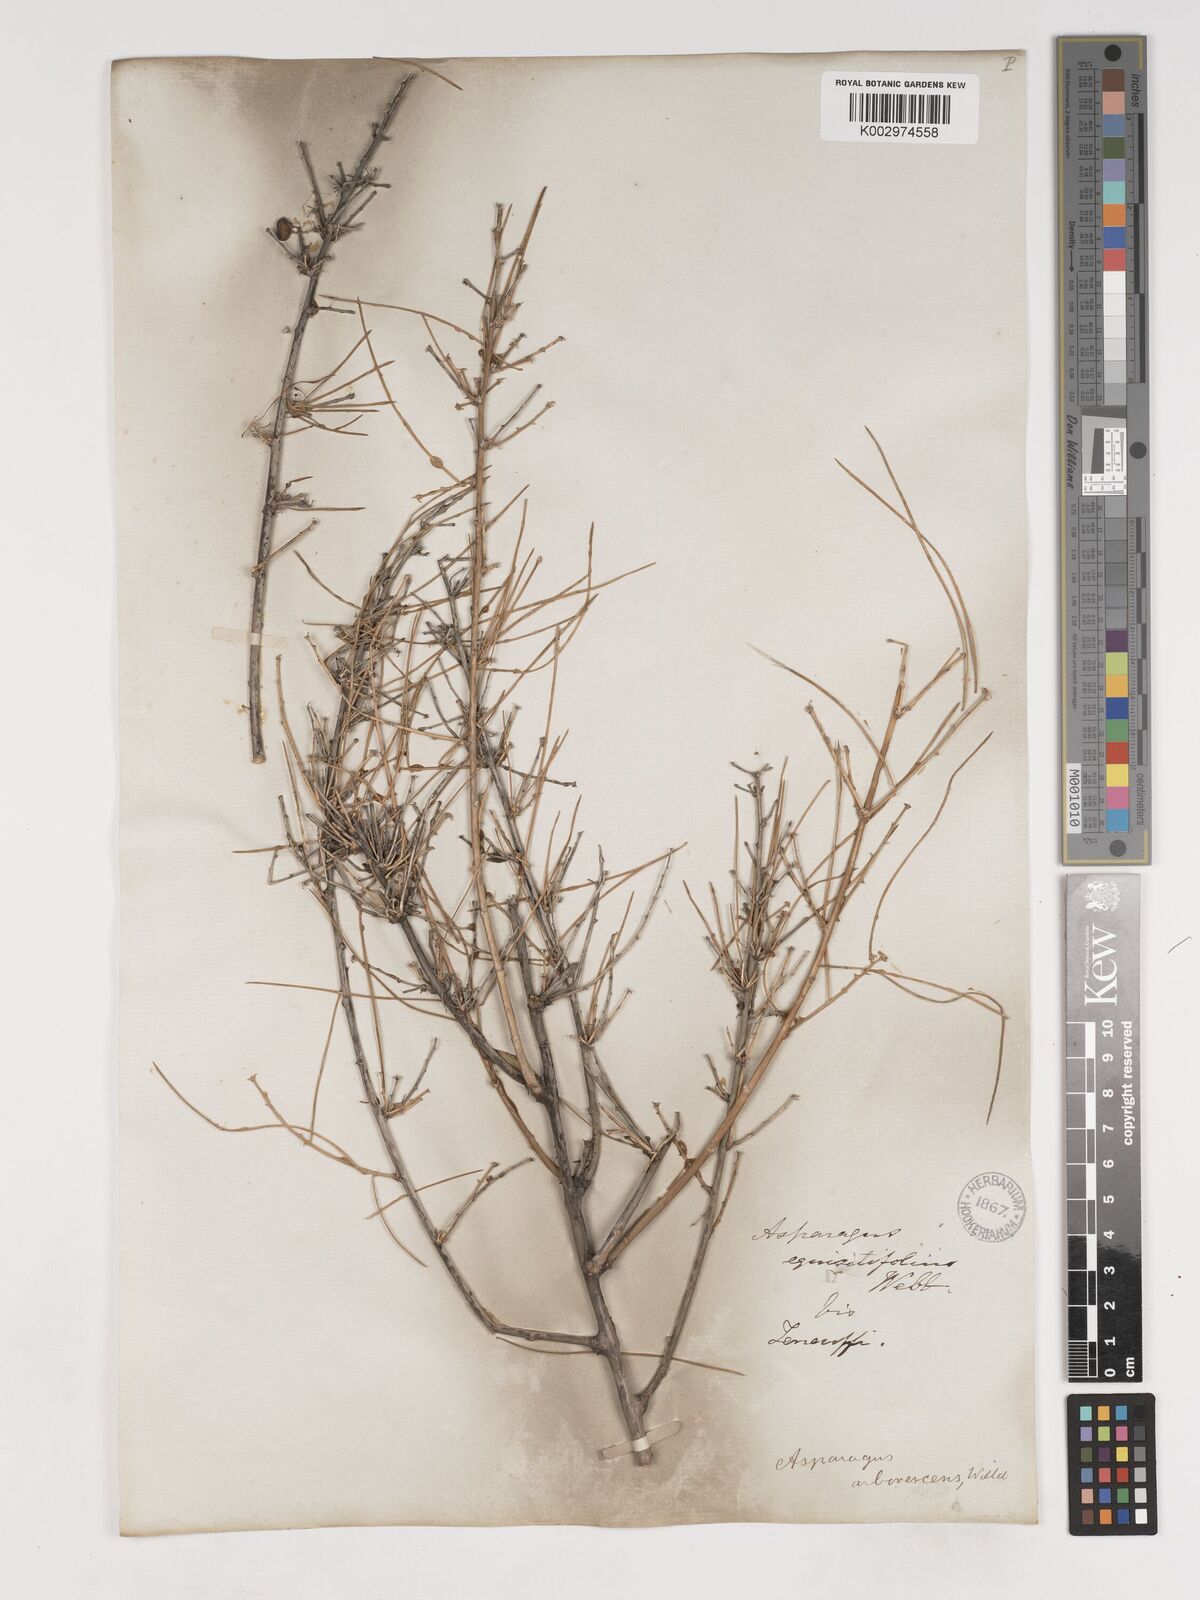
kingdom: Plantae
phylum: Tracheophyta
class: Liliopsida
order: Asparagales
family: Asparagaceae
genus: Asparagus
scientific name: Asparagus arborescens
